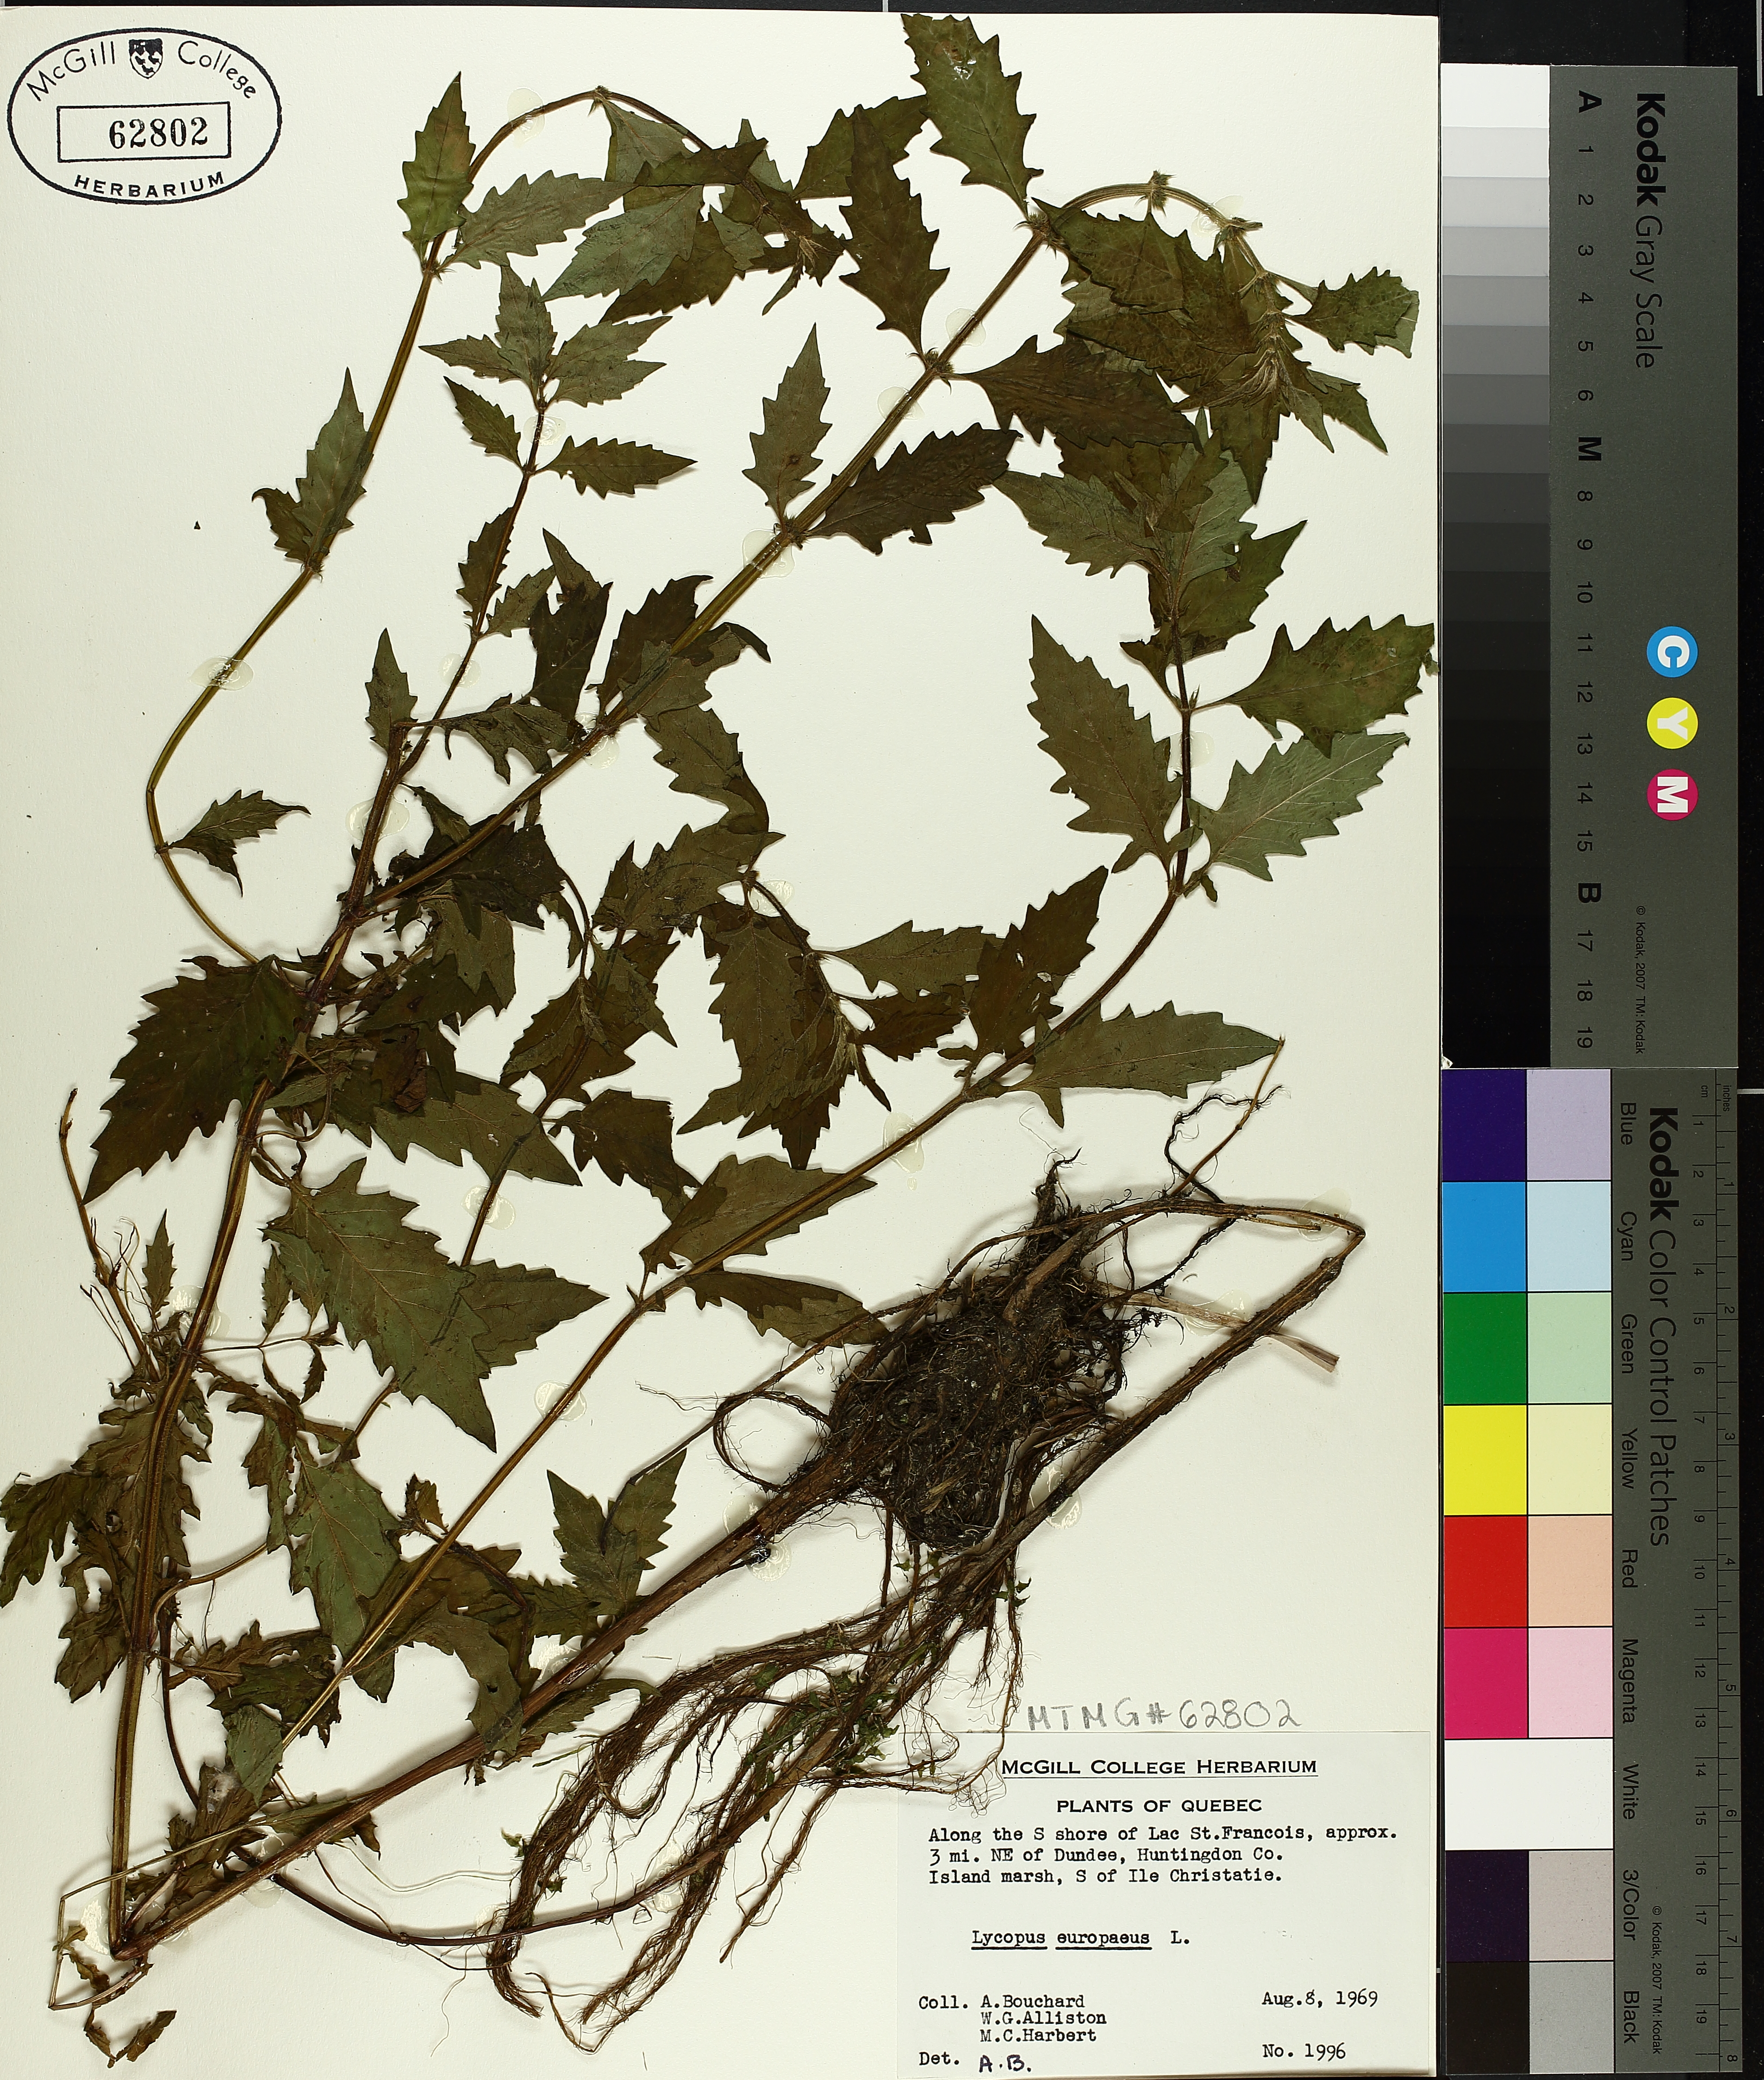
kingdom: Plantae
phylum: Tracheophyta
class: Magnoliopsida
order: Lamiales
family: Lamiaceae
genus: Lycopus
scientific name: Lycopus europaeus
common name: European bugleweed
